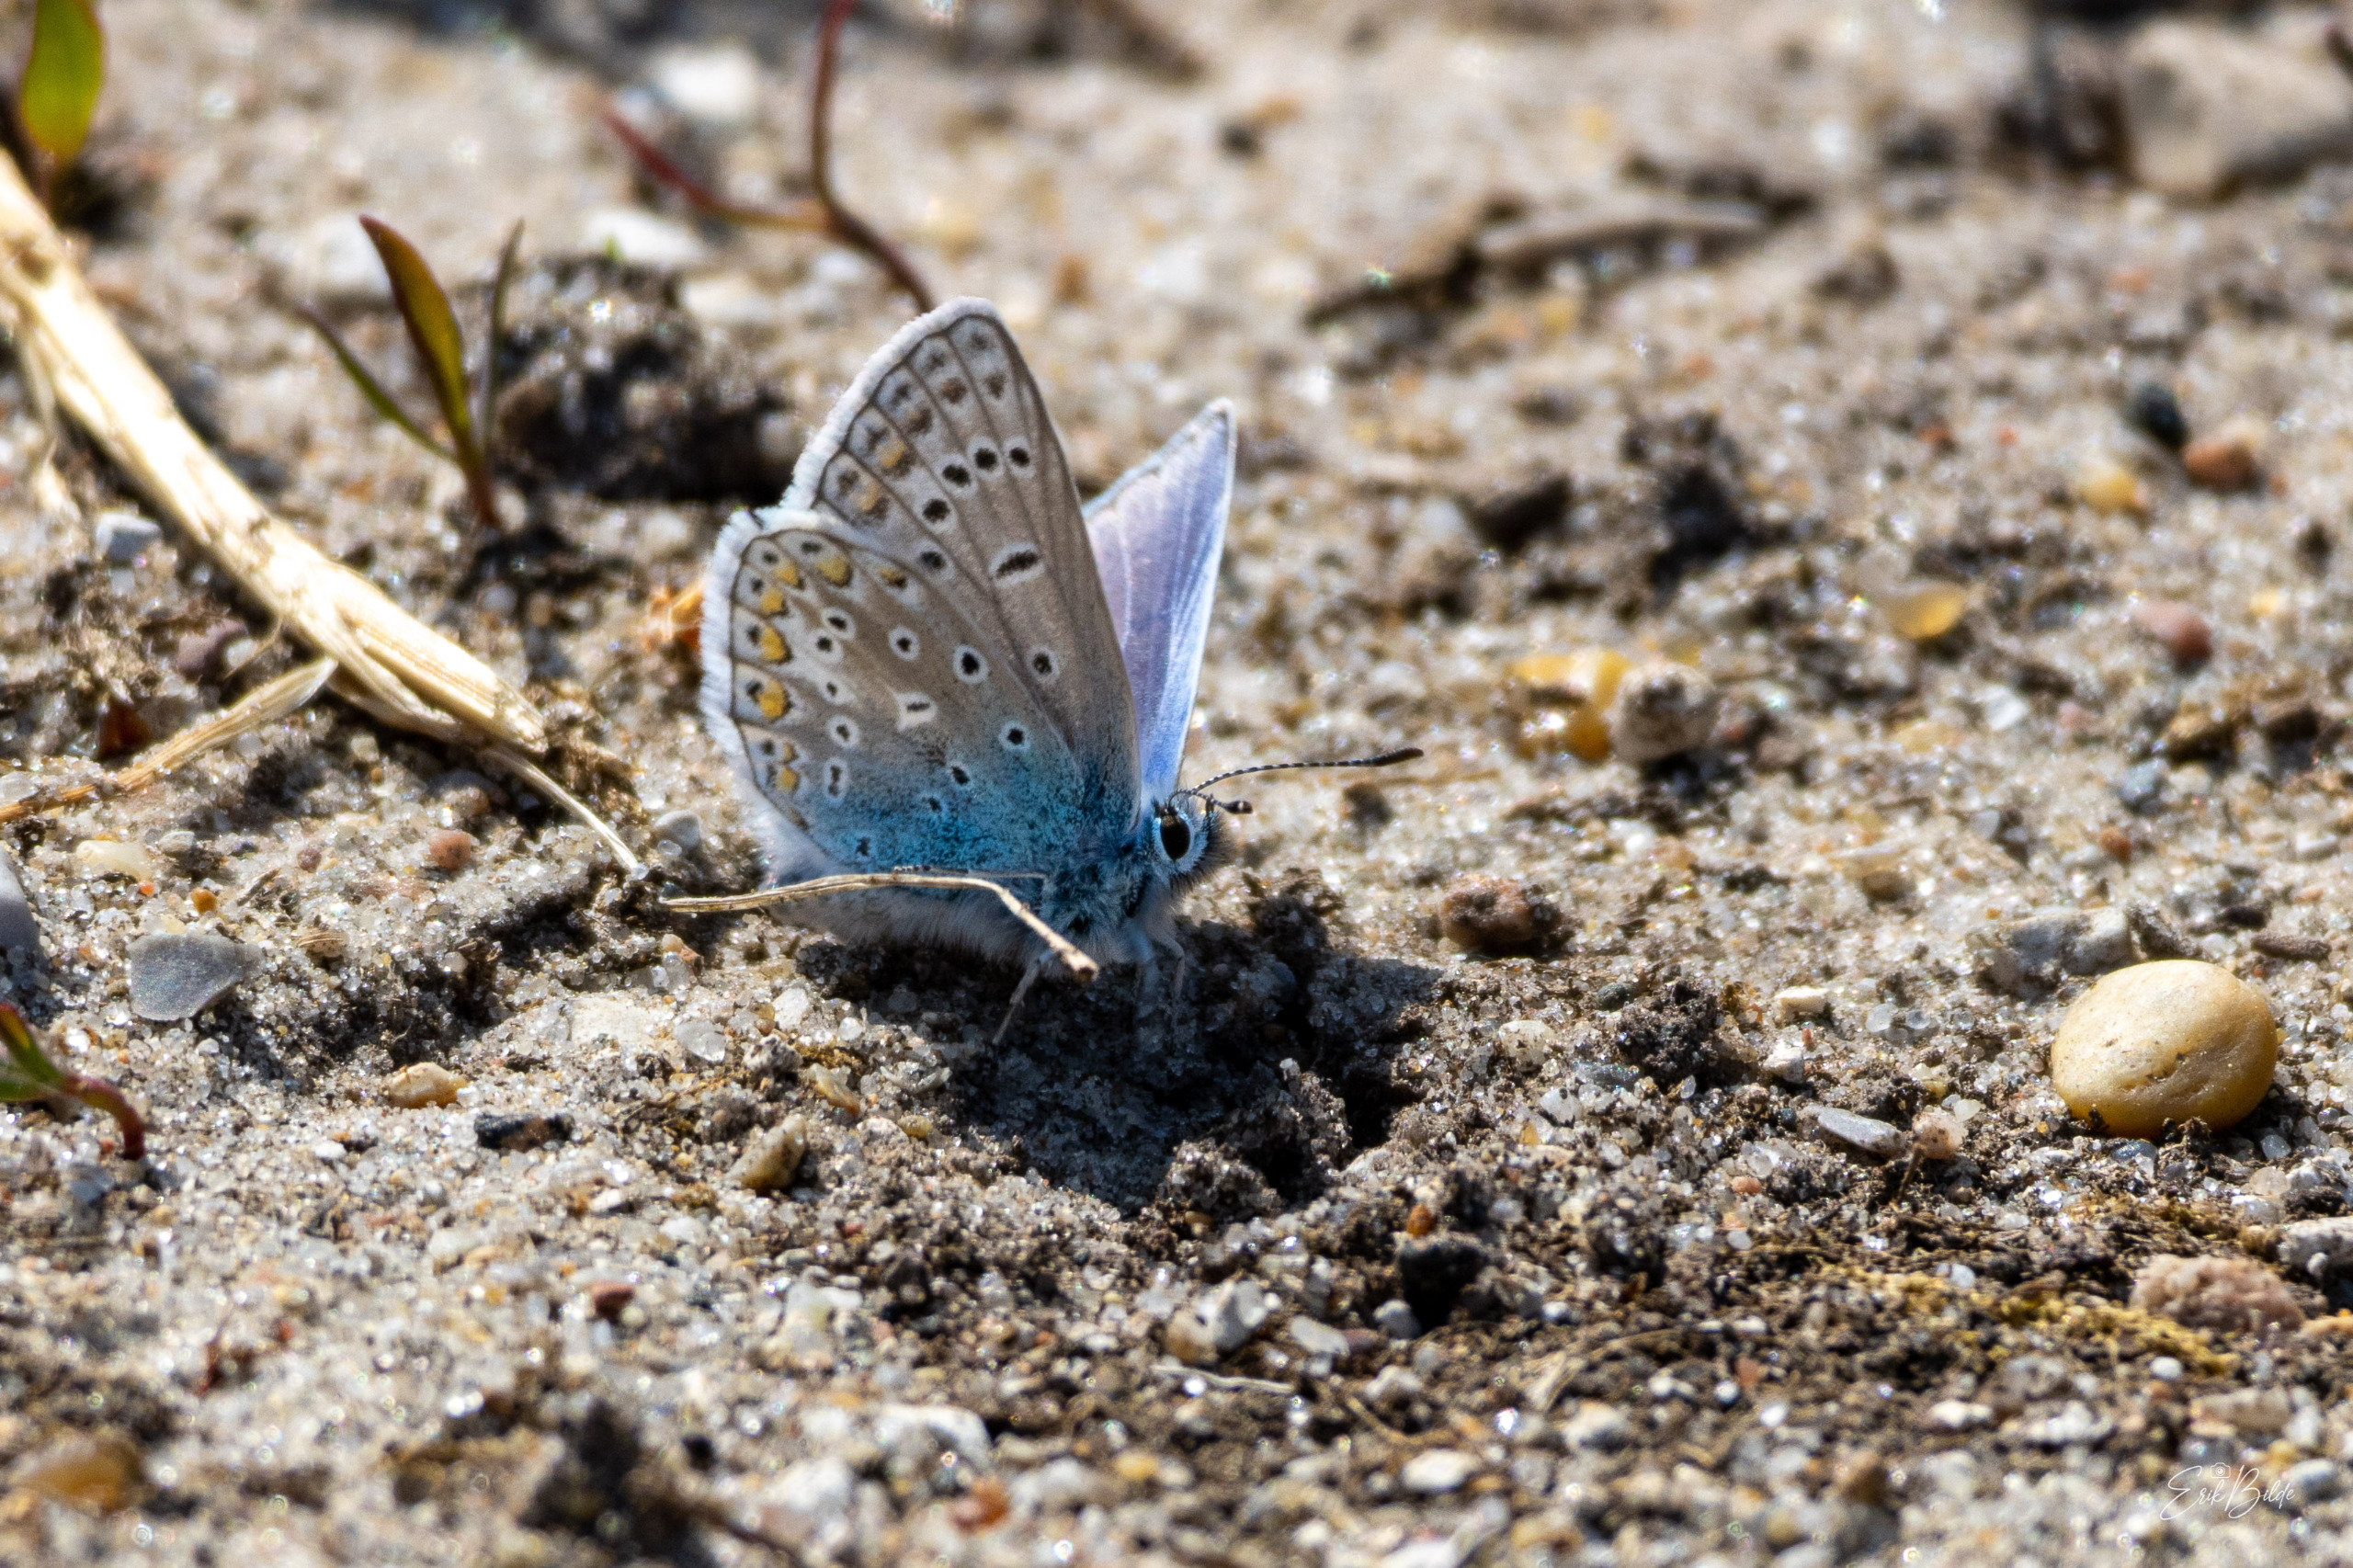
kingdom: Animalia
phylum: Arthropoda
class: Insecta
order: Lepidoptera
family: Lycaenidae
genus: Polyommatus
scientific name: Polyommatus icarus
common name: Almindelig blåfugl
